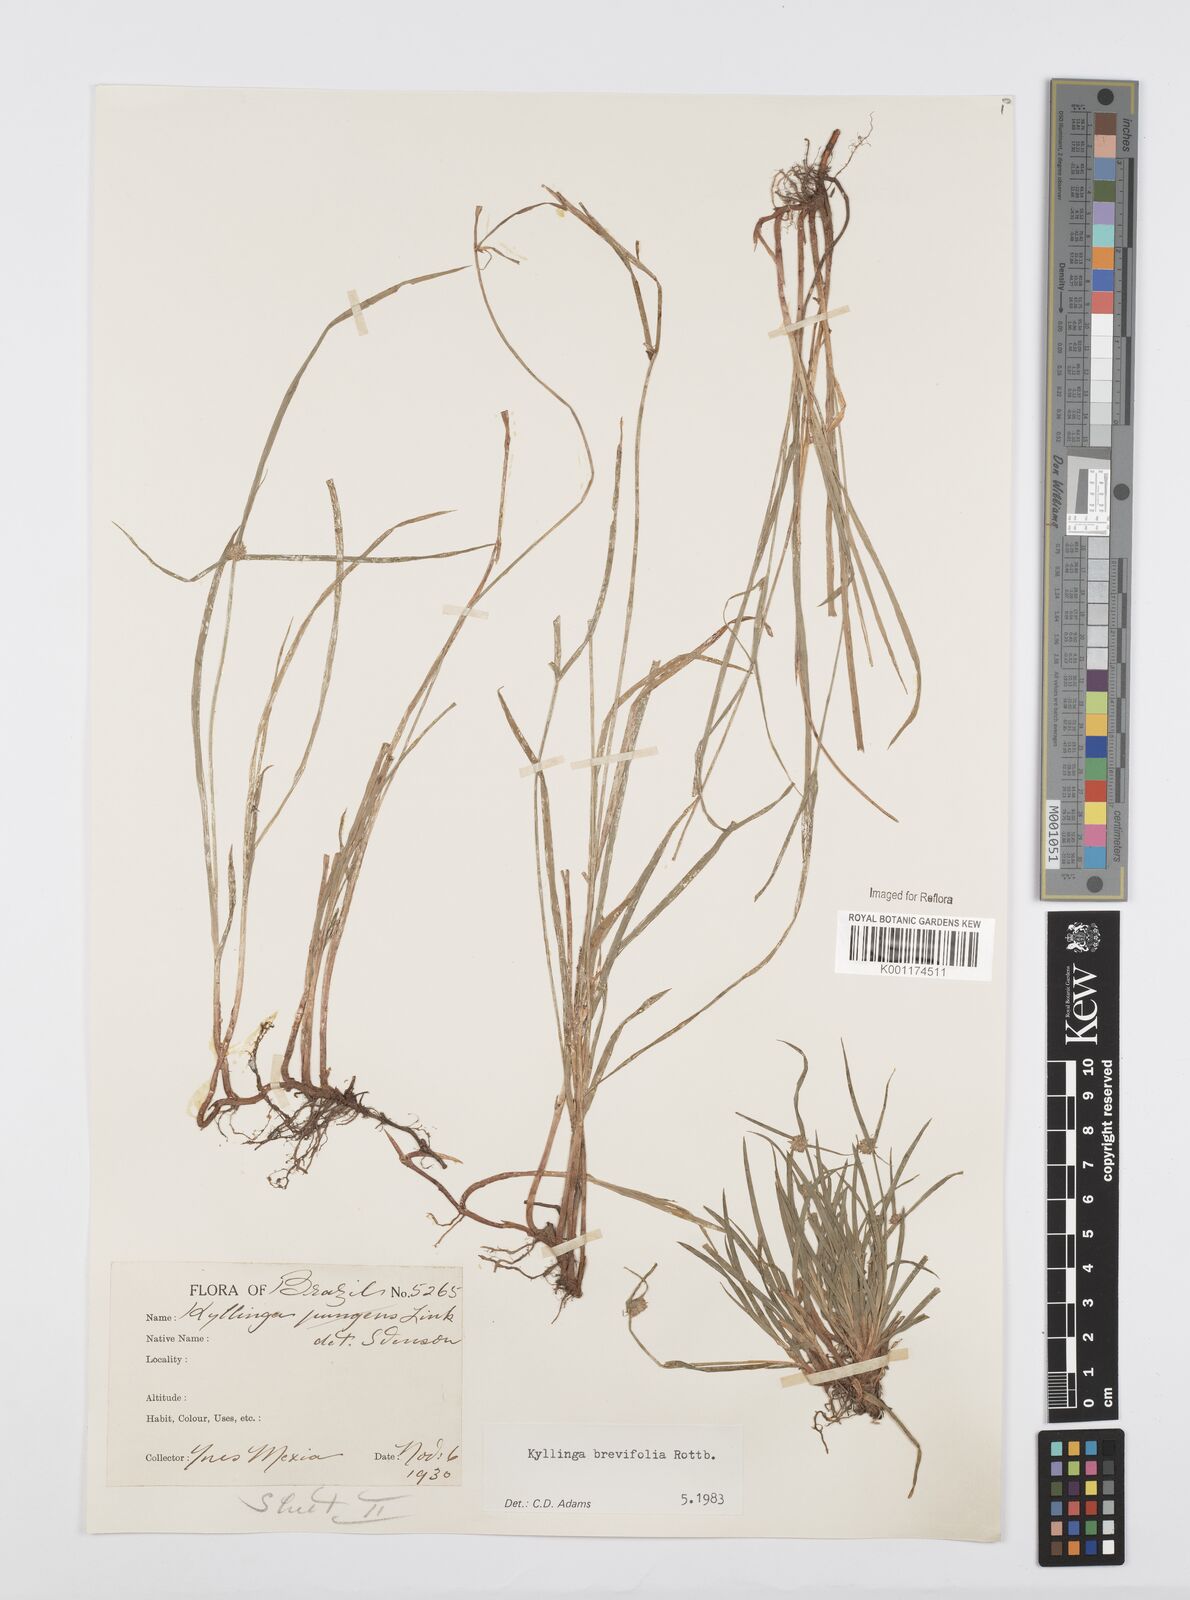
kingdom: Plantae
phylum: Tracheophyta
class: Liliopsida
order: Poales
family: Cyperaceae
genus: Cyperus
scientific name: Cyperus brevifolius
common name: Globe kyllinga
